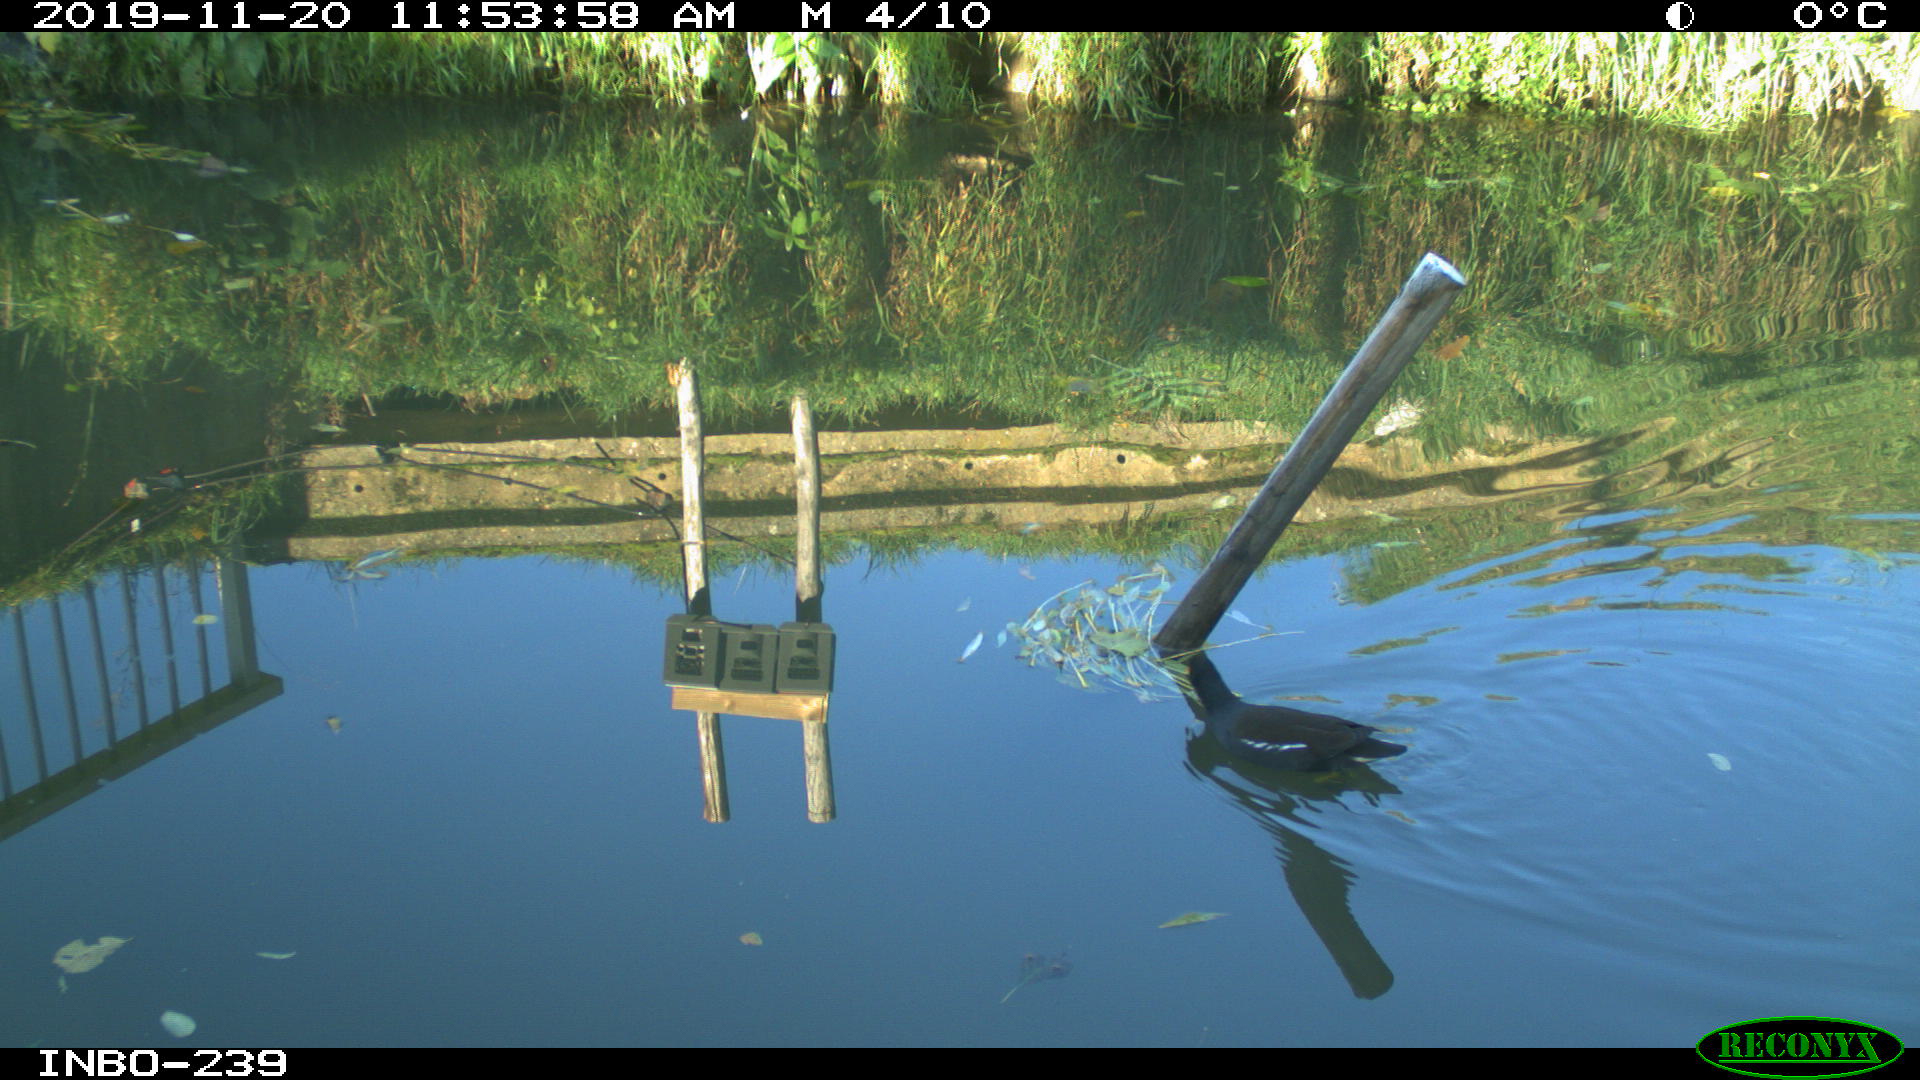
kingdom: Animalia
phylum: Chordata
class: Aves
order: Gruiformes
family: Rallidae
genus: Gallinula
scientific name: Gallinula chloropus
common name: Common moorhen
